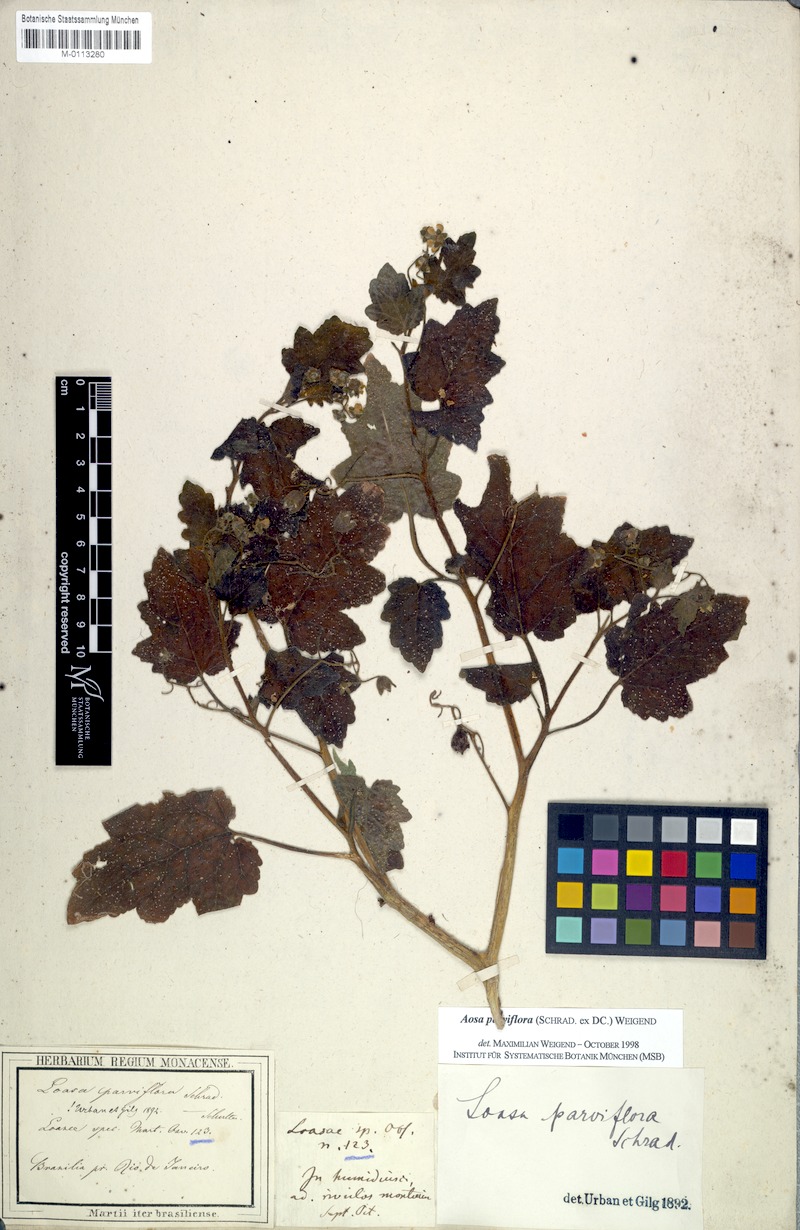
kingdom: Plantae
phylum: Tracheophyta
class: Magnoliopsida
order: Cornales
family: Loasaceae
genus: Aosa
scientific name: Aosa parviflora
